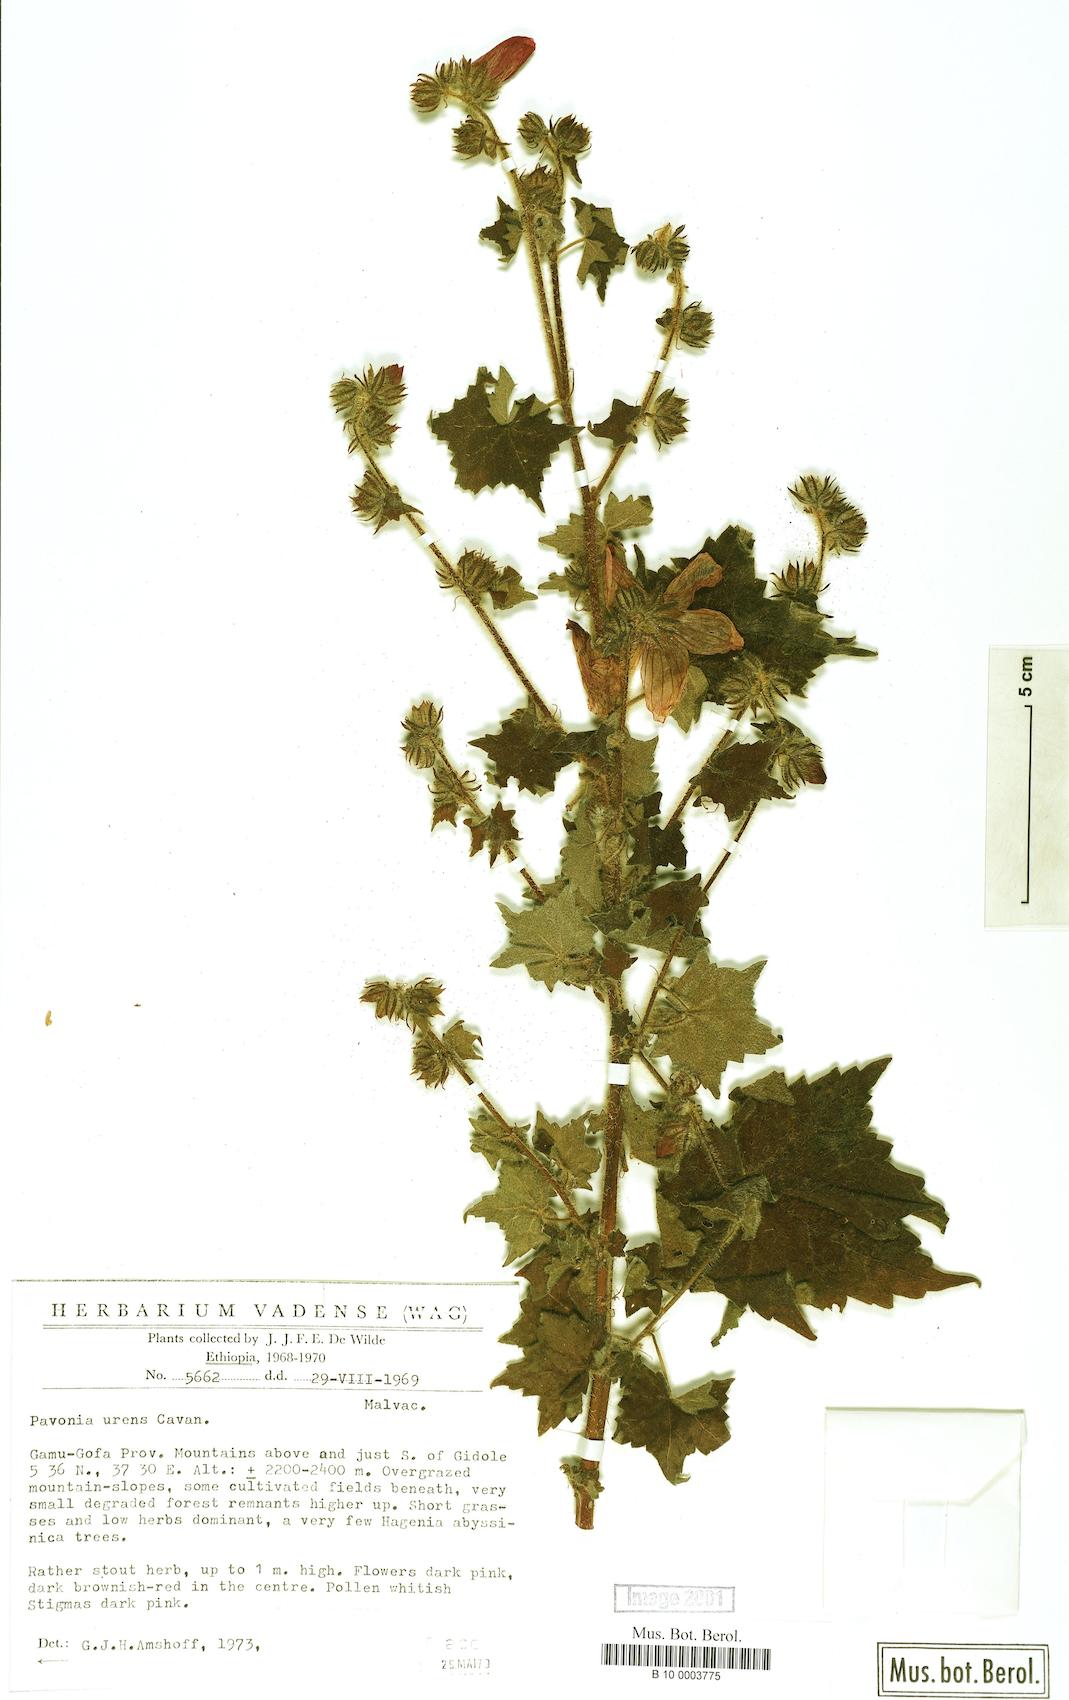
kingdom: Plantae
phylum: Tracheophyta
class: Magnoliopsida
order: Malvales
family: Malvaceae
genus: Pavonia
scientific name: Pavonia urens
